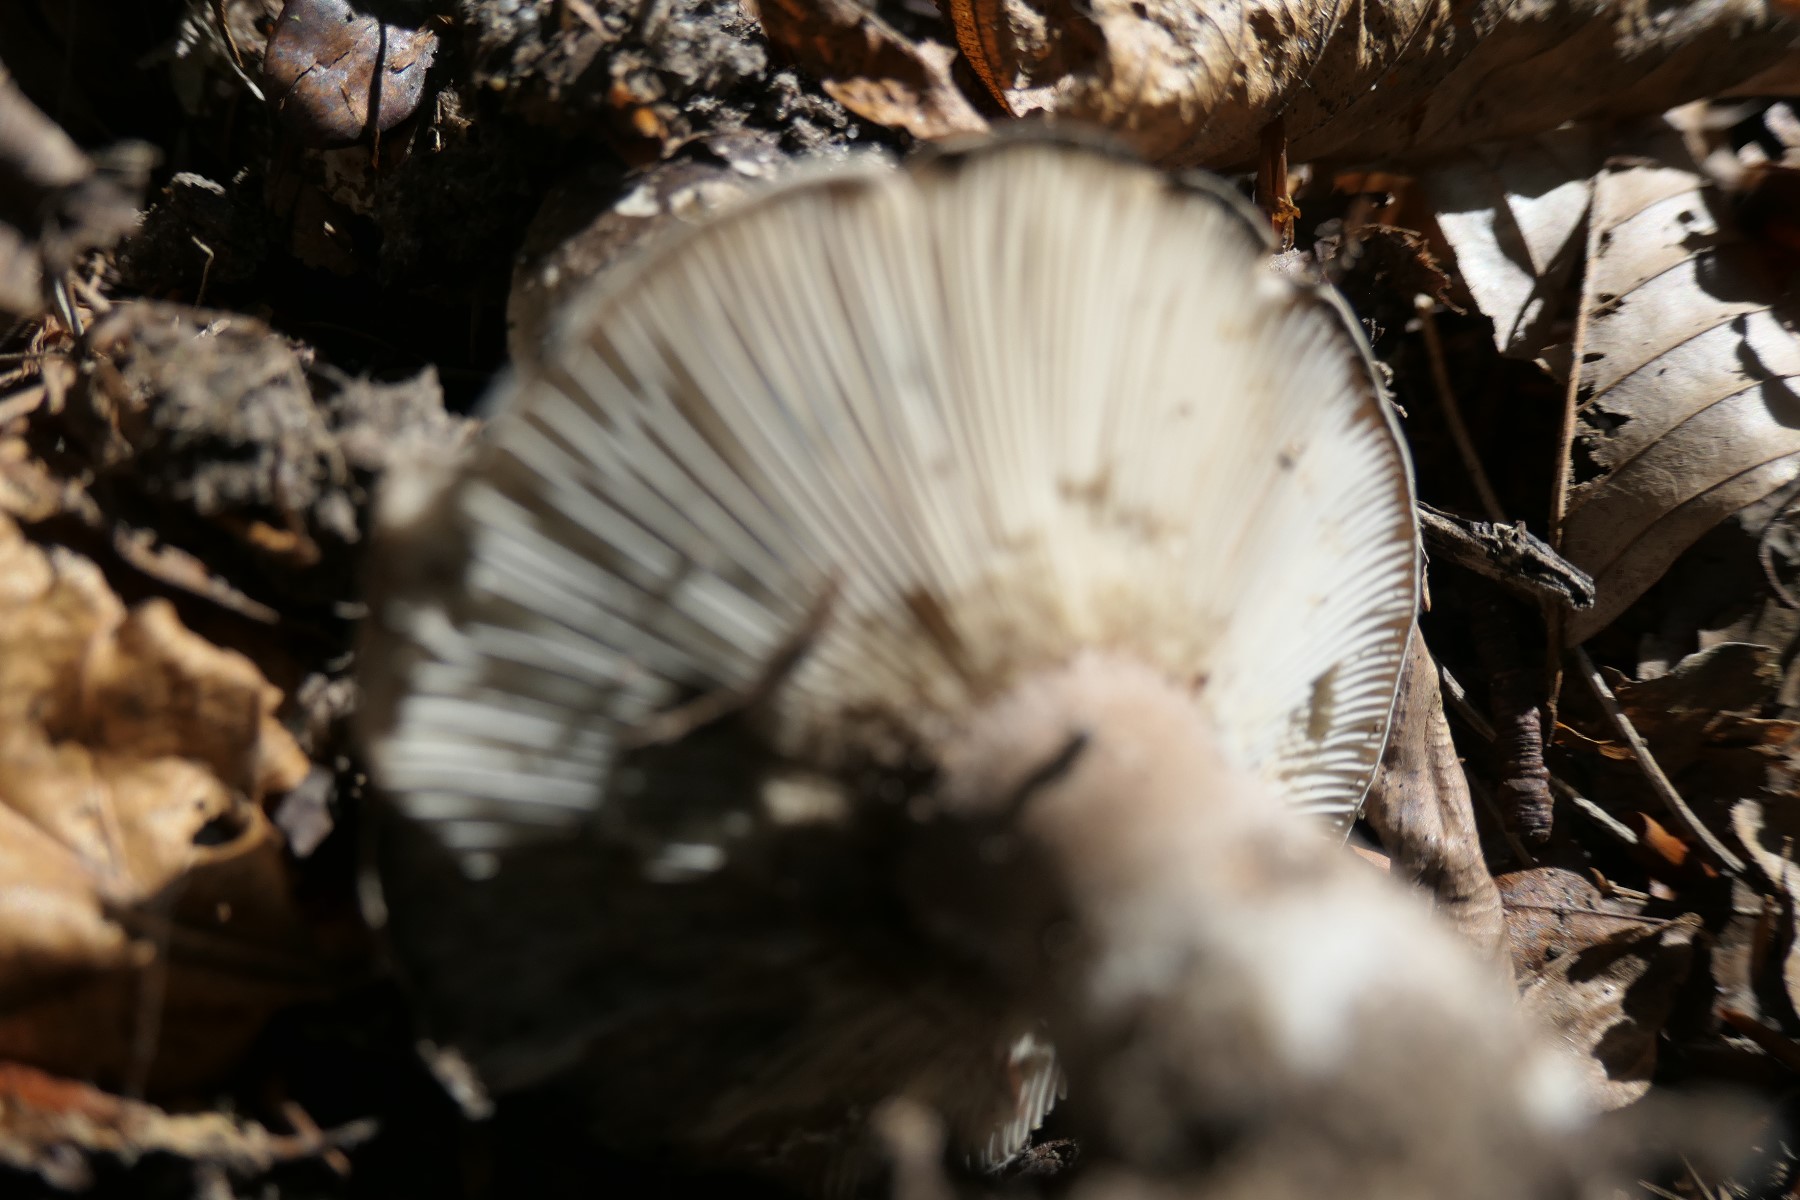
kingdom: Fungi
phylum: Basidiomycota
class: Agaricomycetes
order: Russulales
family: Russulaceae
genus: Russula
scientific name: Russula densifolia
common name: tætbladet skørhat
